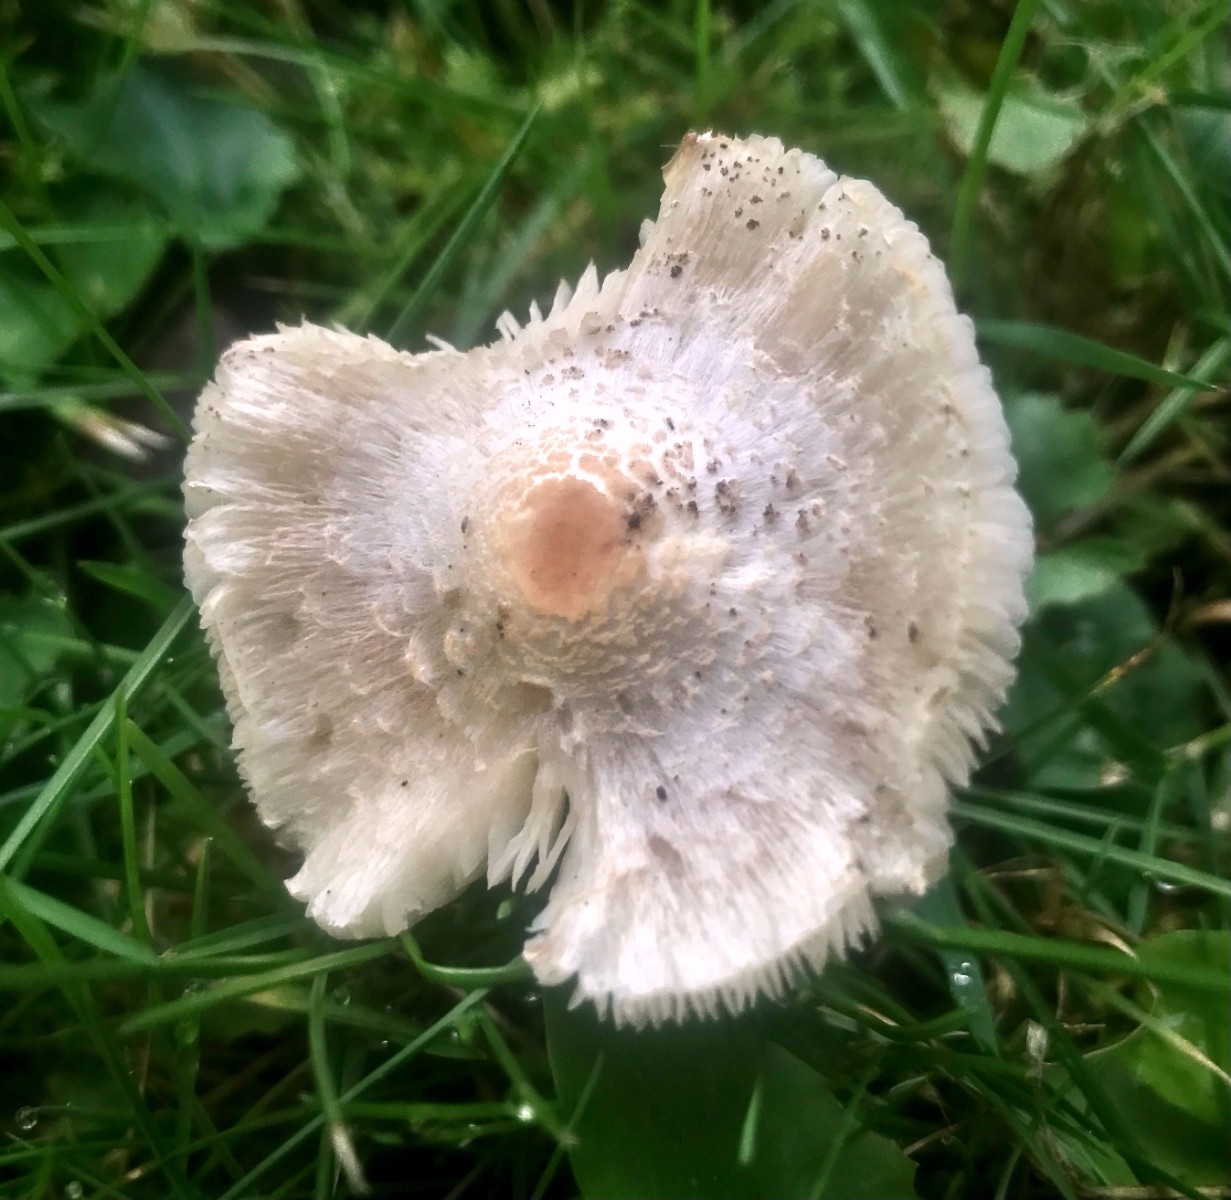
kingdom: Fungi
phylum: Basidiomycota
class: Agaricomycetes
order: Agaricales
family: Agaricaceae
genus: Lepiota
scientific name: Lepiota cristata
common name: stinkende parasolhat
